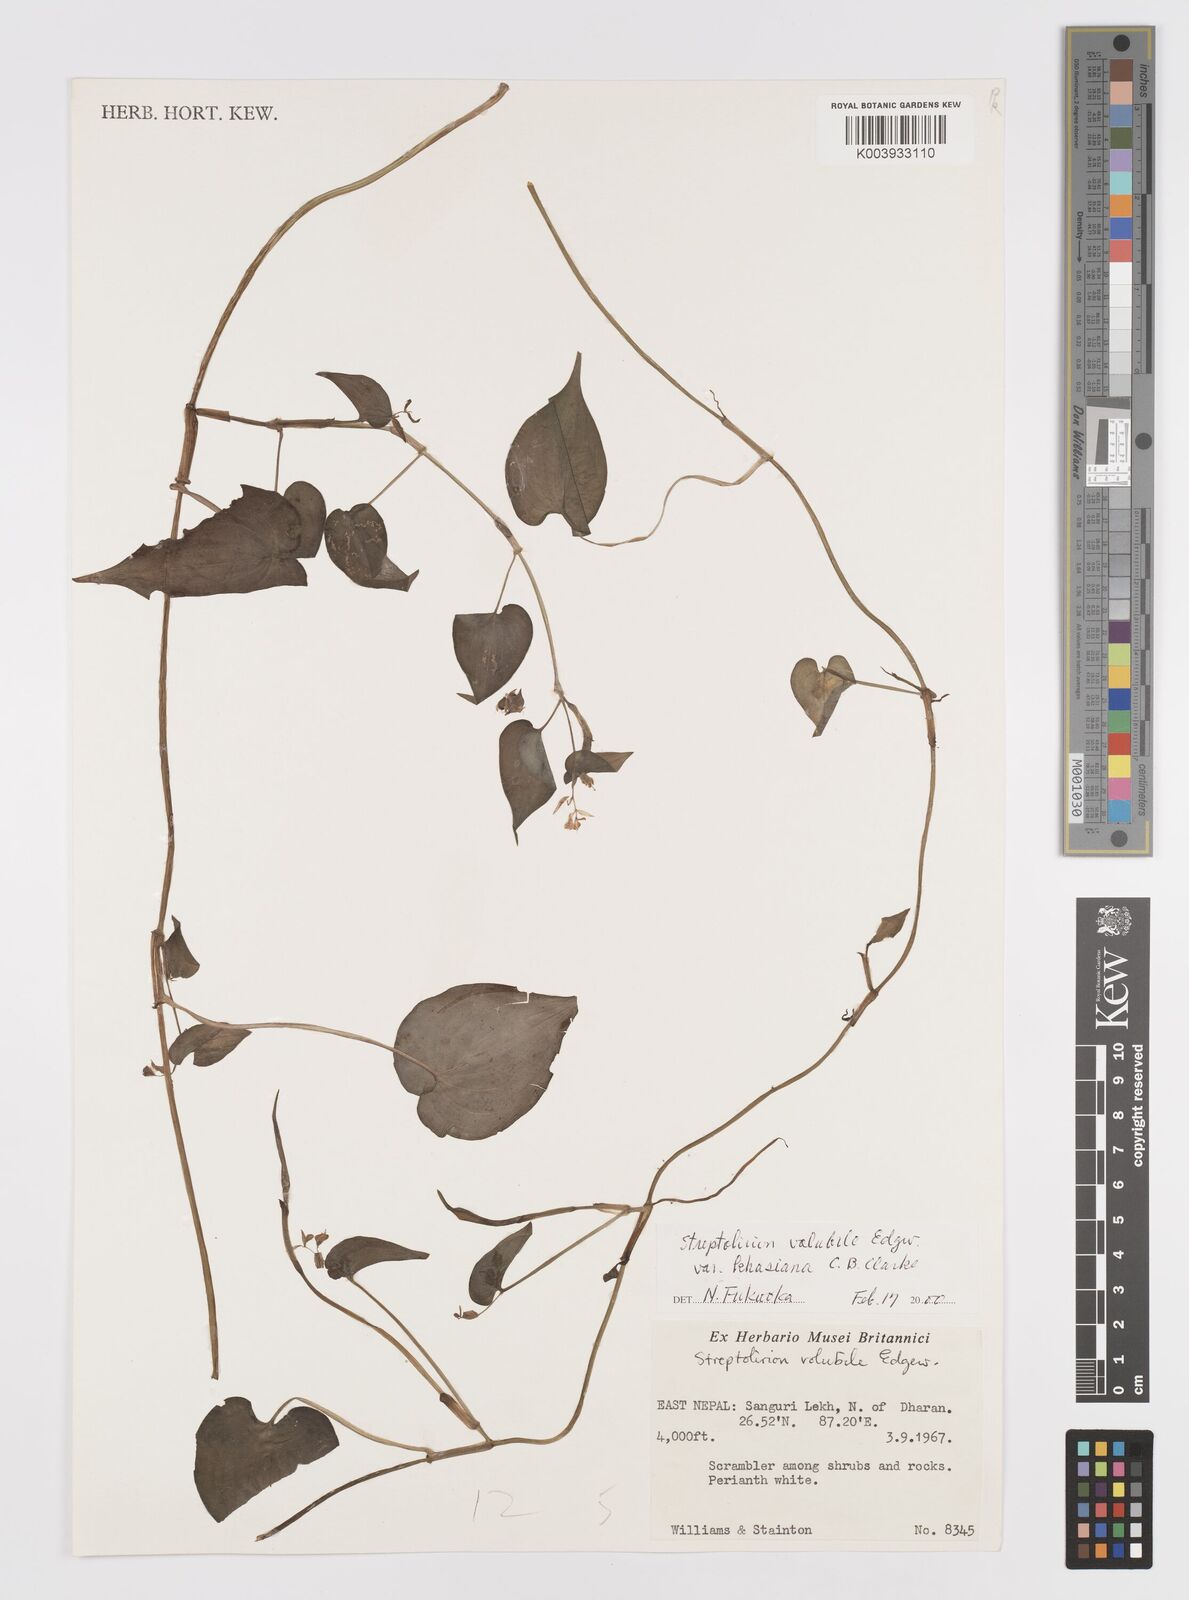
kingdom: Plantae
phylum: Tracheophyta
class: Liliopsida
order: Commelinales
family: Commelinaceae
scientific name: Commelinaceae
